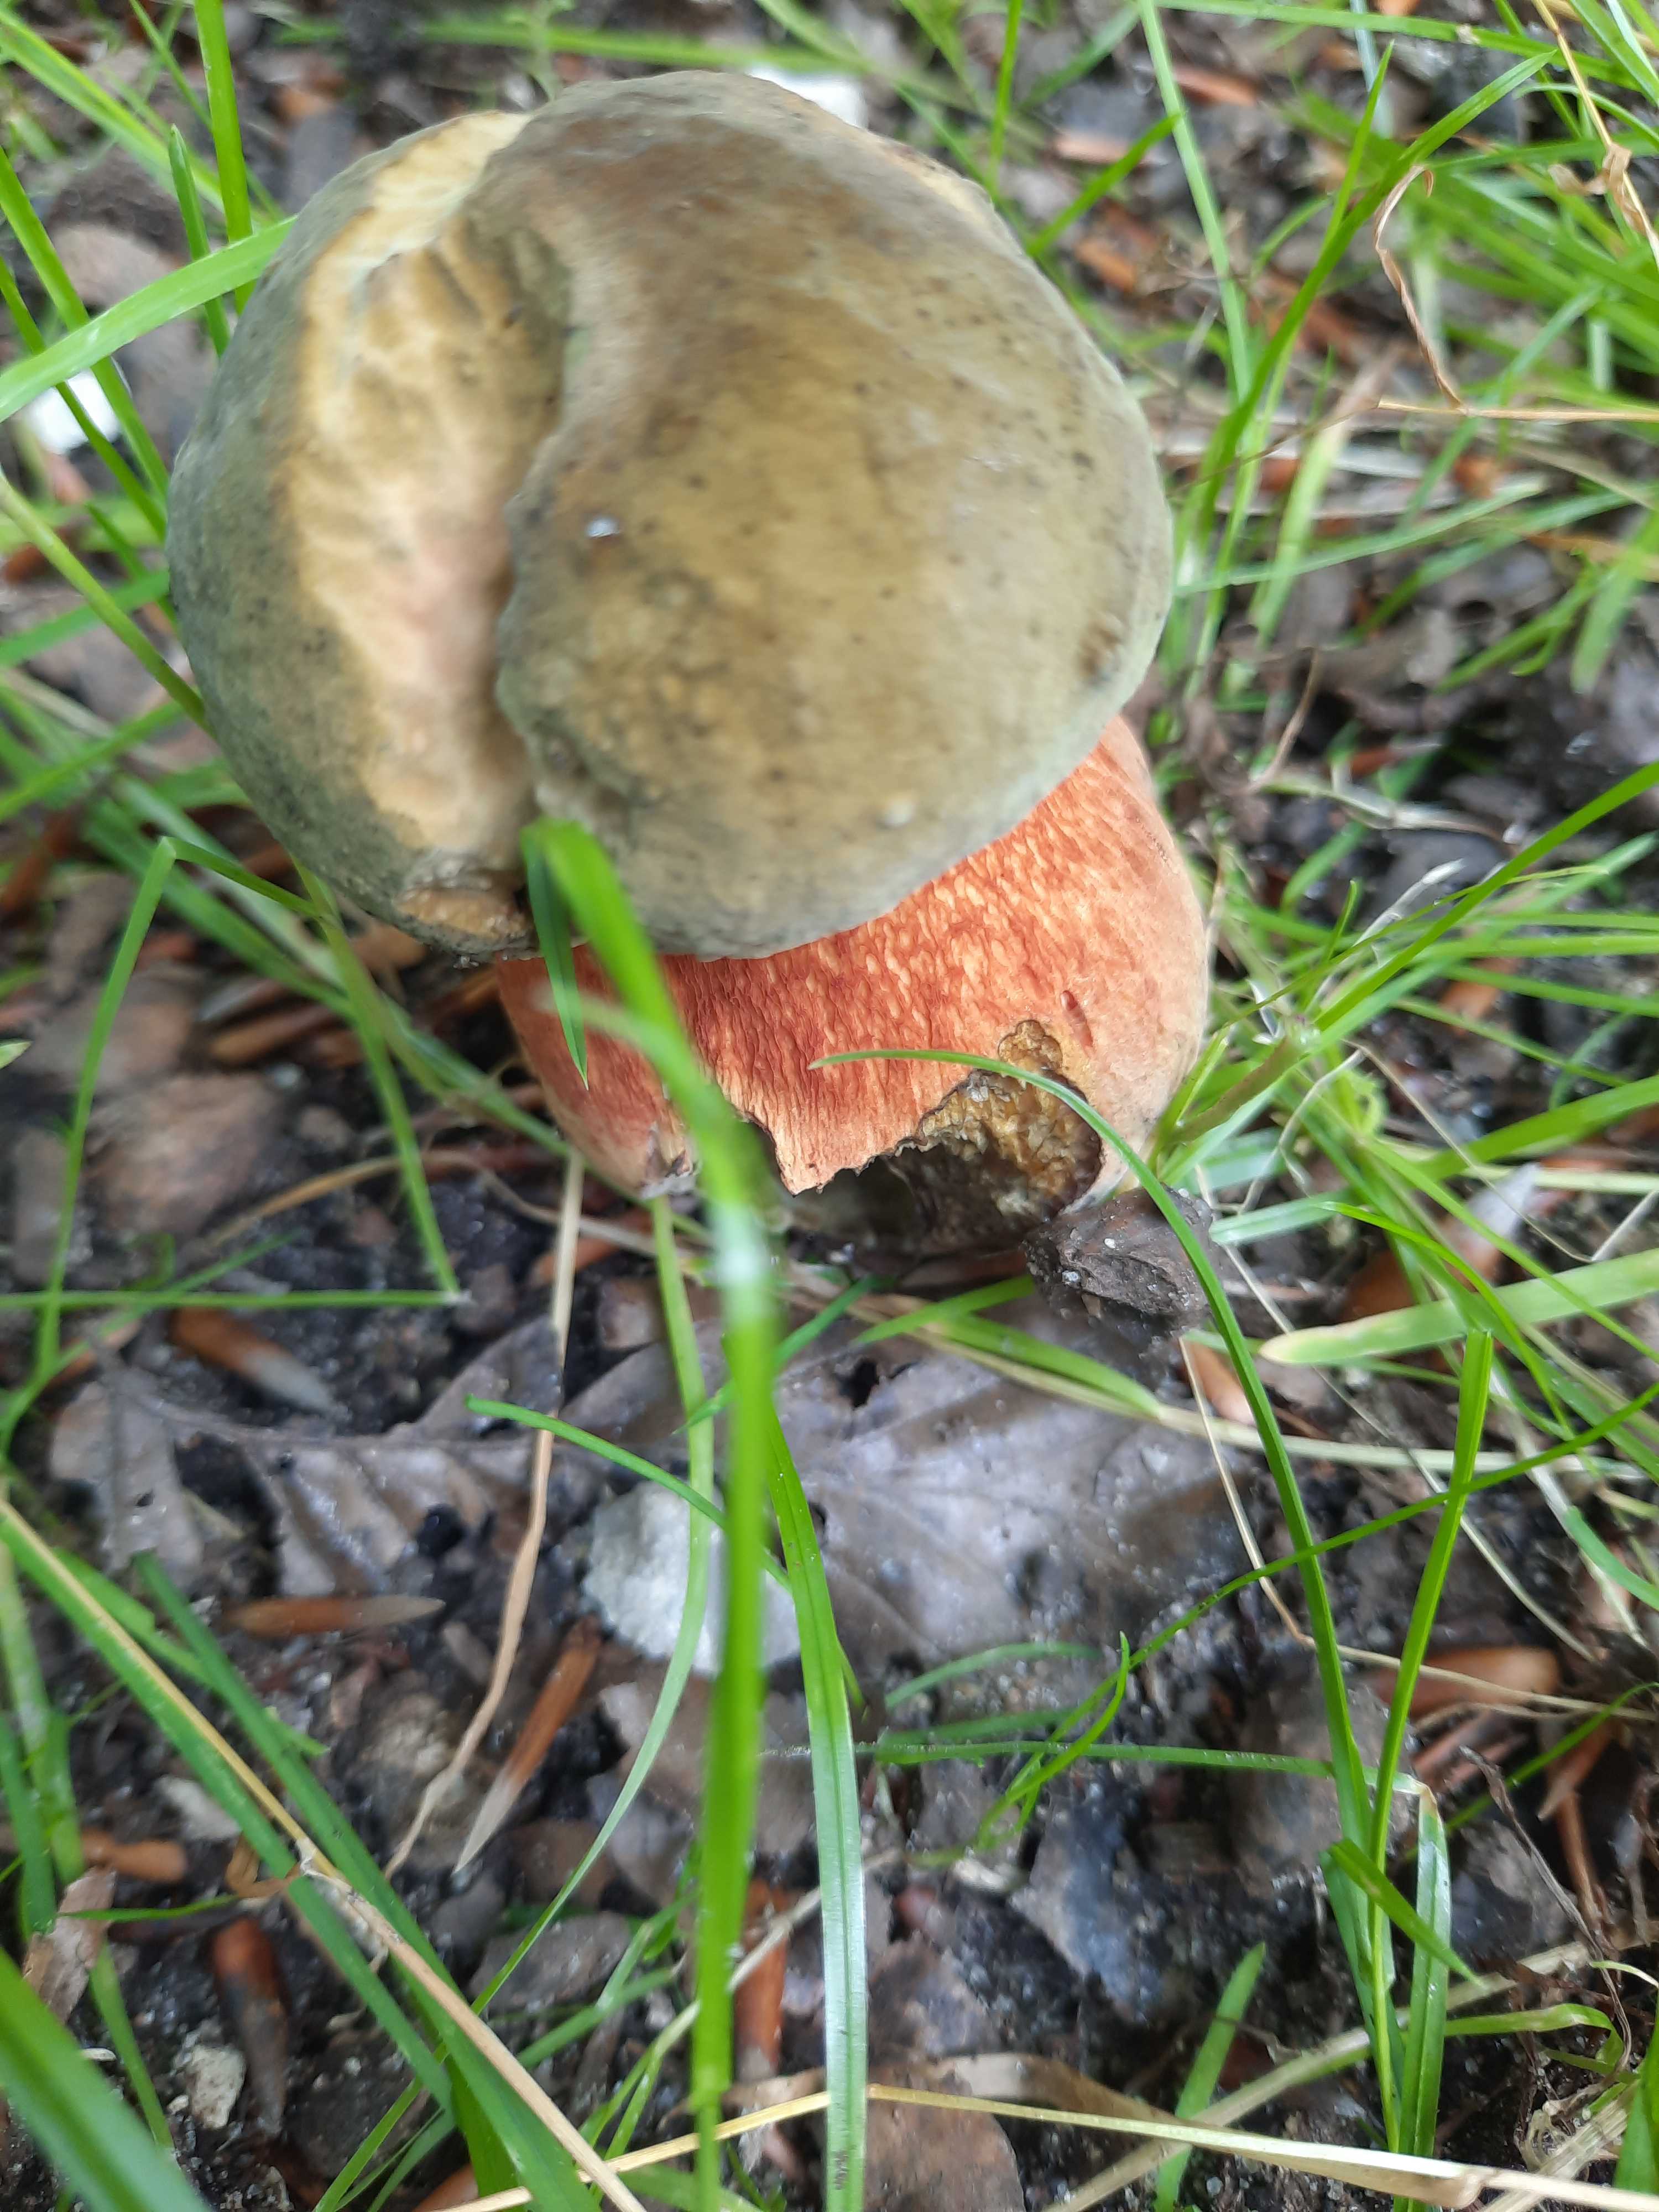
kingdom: Fungi
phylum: Basidiomycota
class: Agaricomycetes
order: Boletales
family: Boletaceae
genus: Suillellus
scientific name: Suillellus luridus
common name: netstokket indigorørhat
